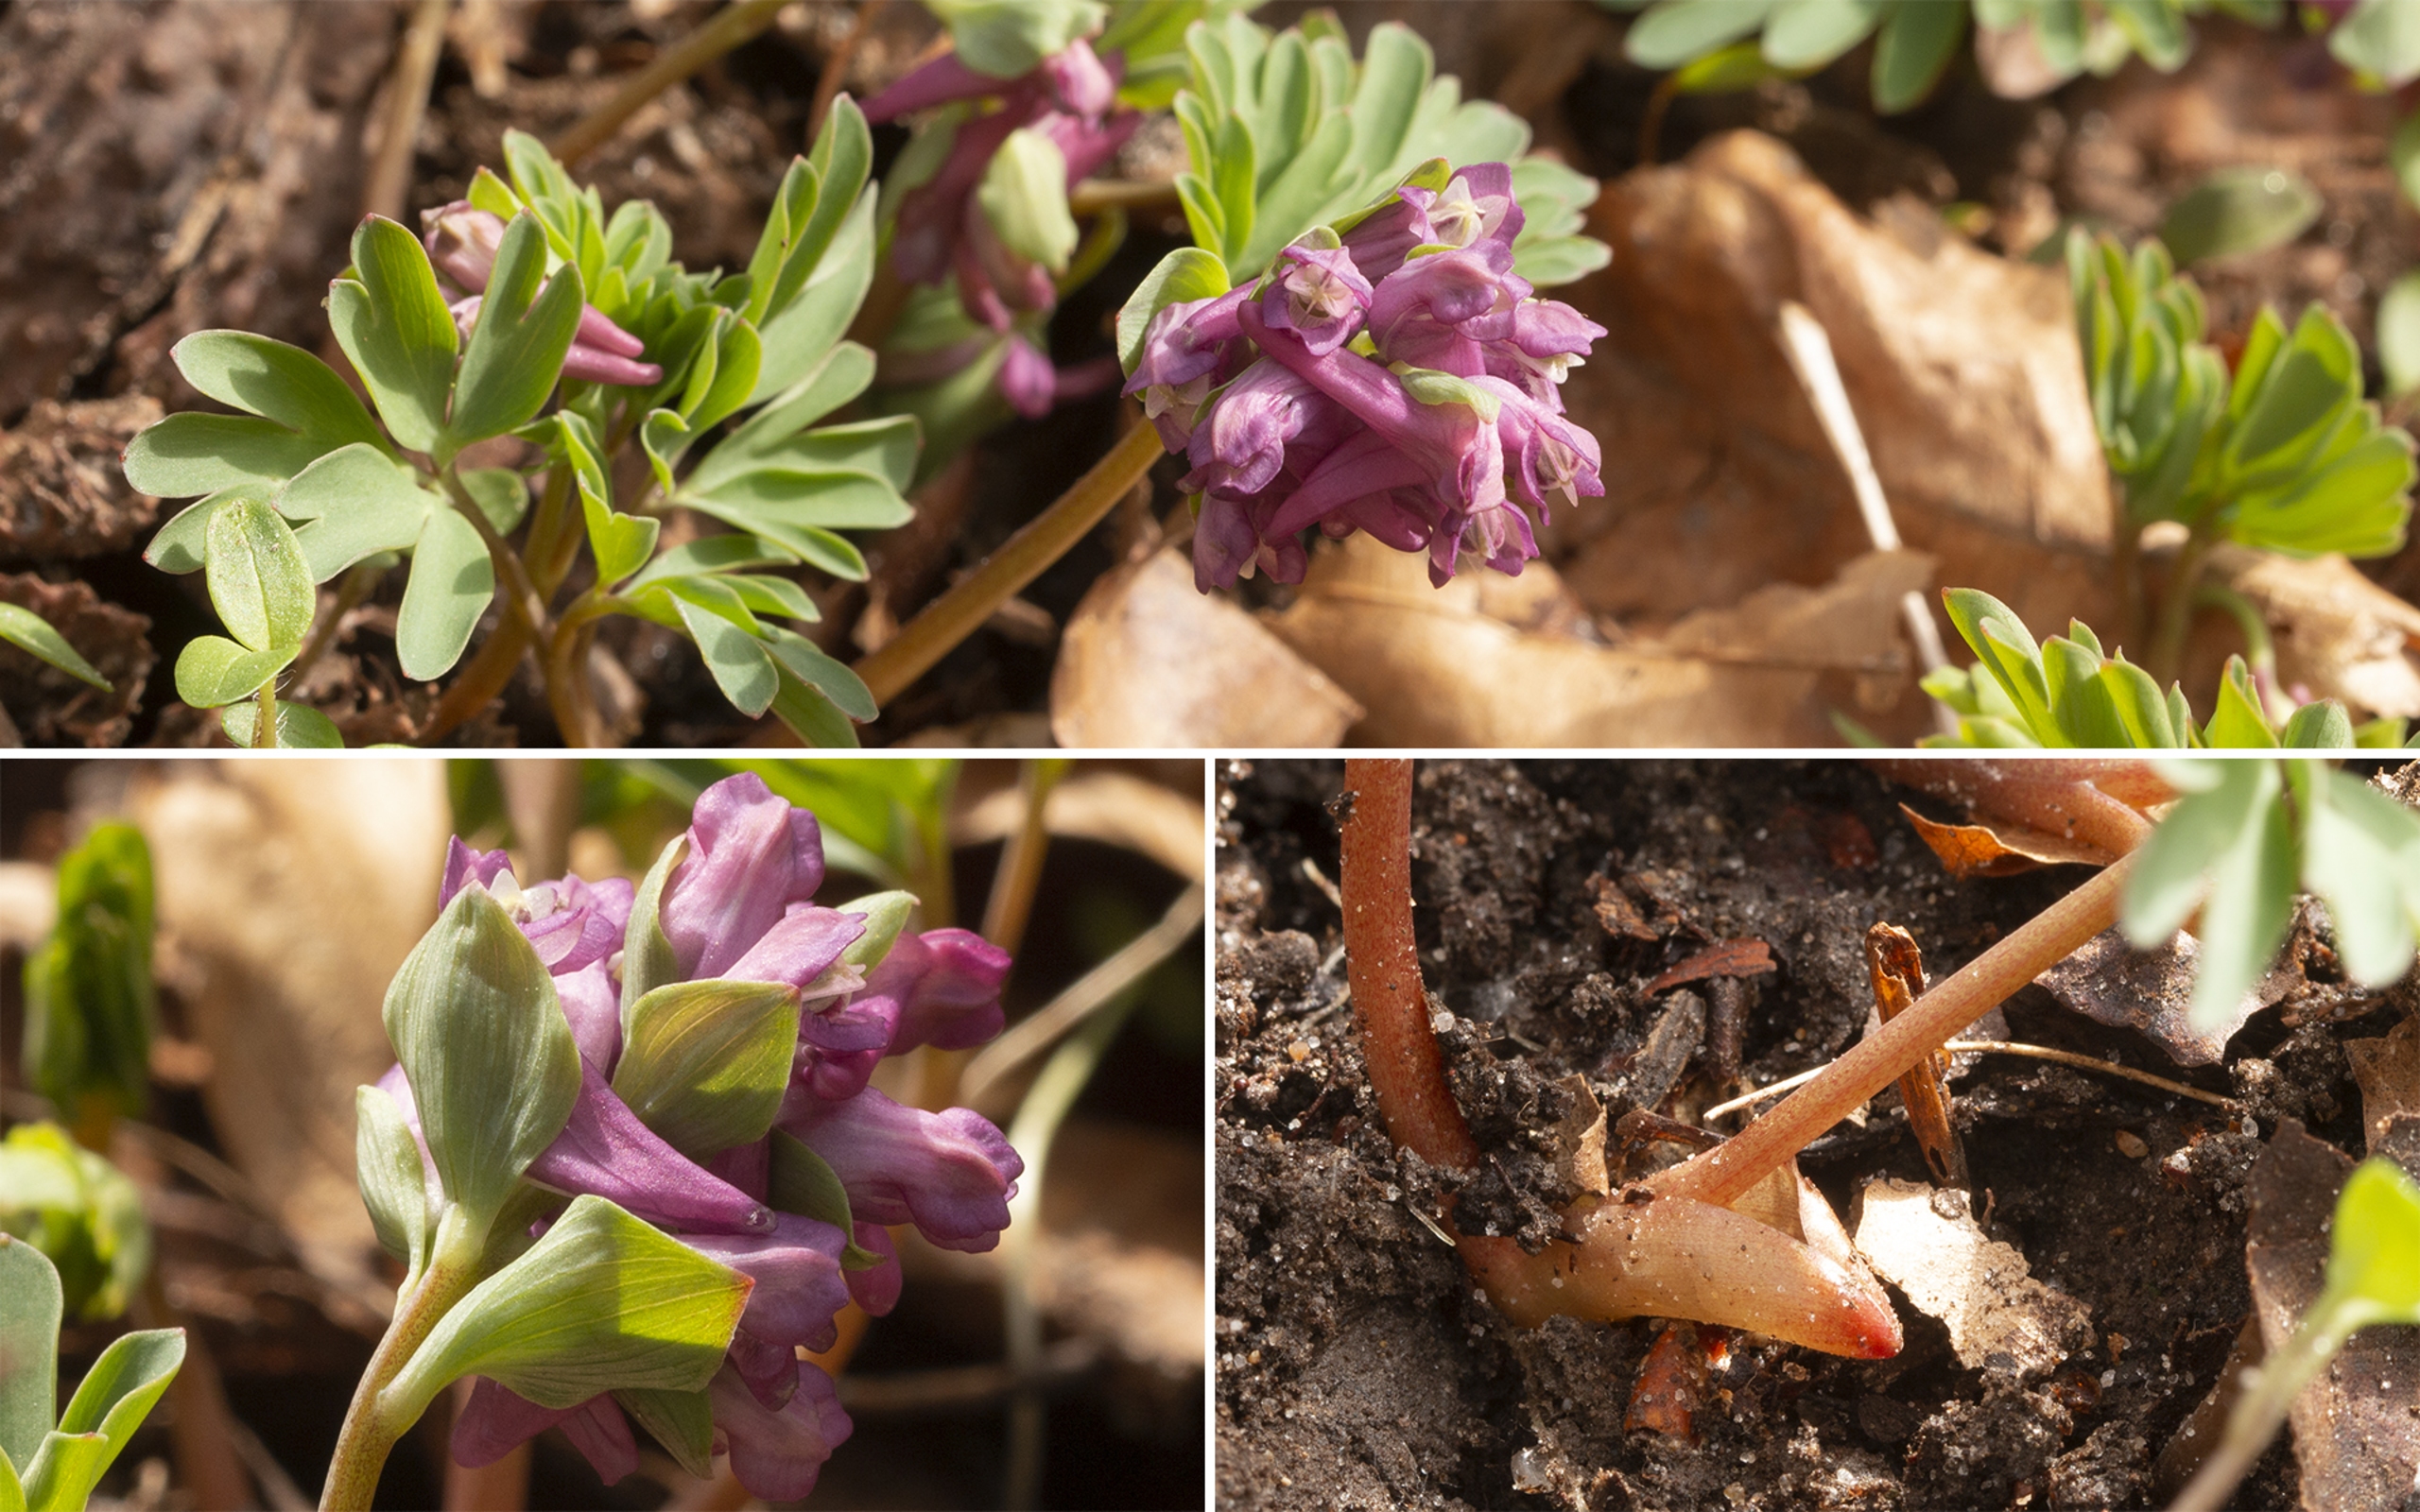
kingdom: Plantae
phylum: Tracheophyta
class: Magnoliopsida
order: Ranunculales
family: Papaveraceae
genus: Corydalis
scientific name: Corydalis intermedia
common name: Liden lærkespore
